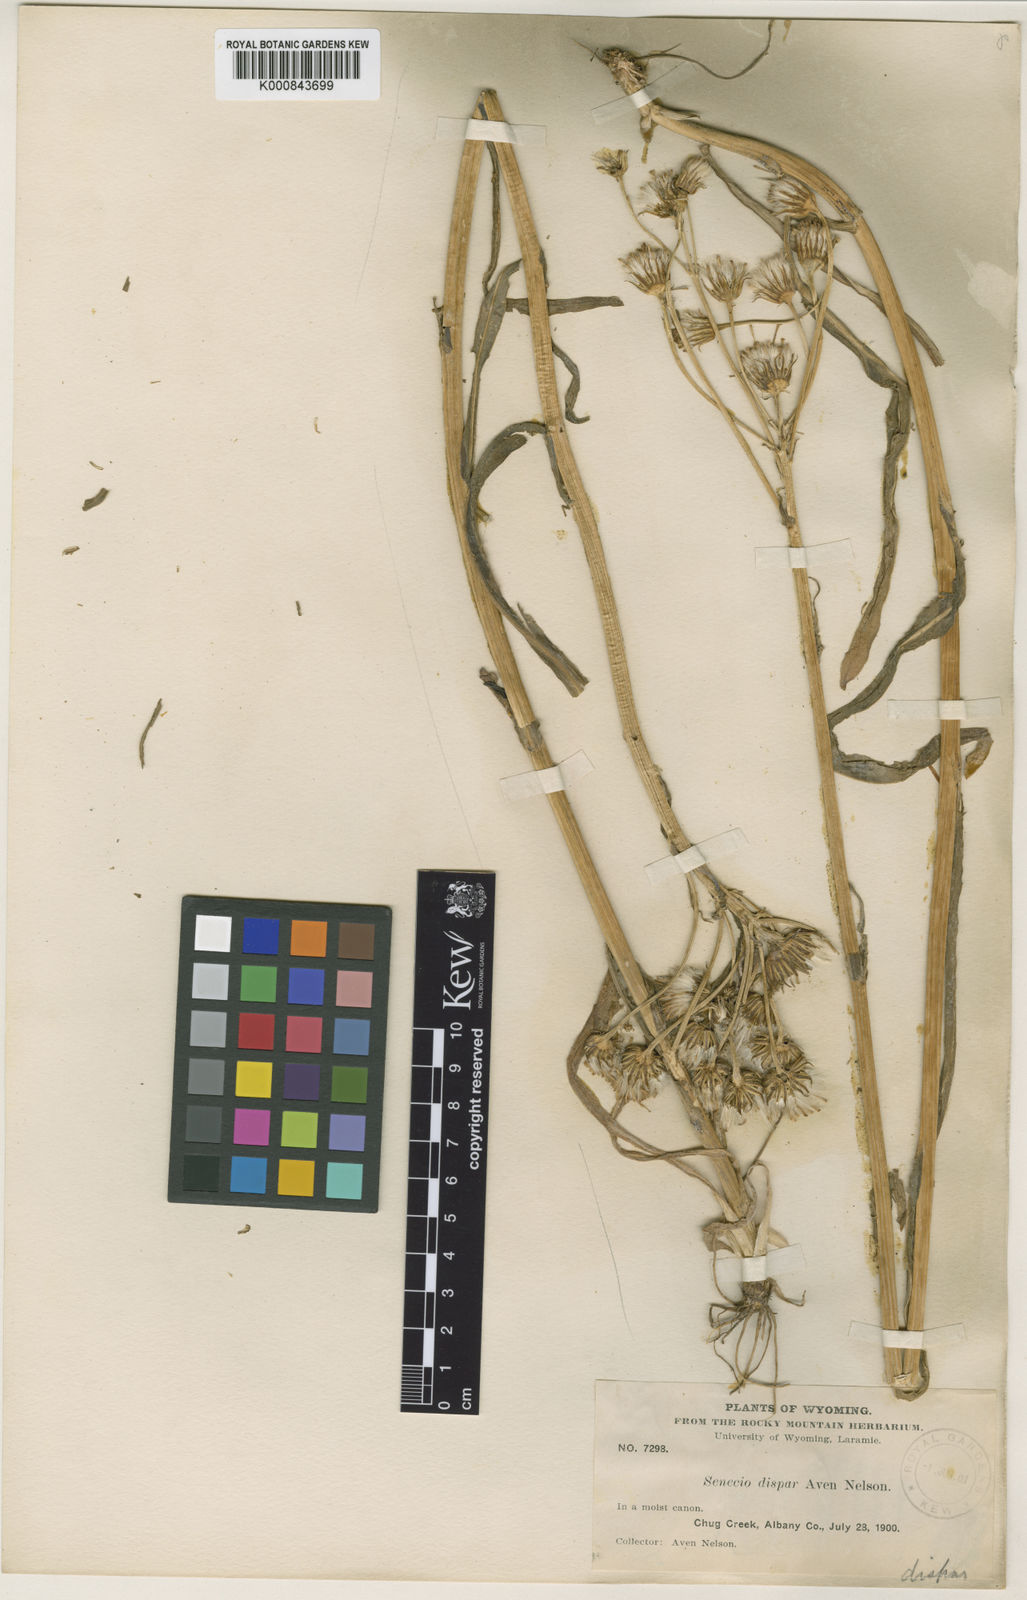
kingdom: Plantae
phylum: Tracheophyta
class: Magnoliopsida
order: Asterales
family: Asteraceae
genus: Senecio
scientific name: Senecio integerrimus
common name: Gaugeplant
